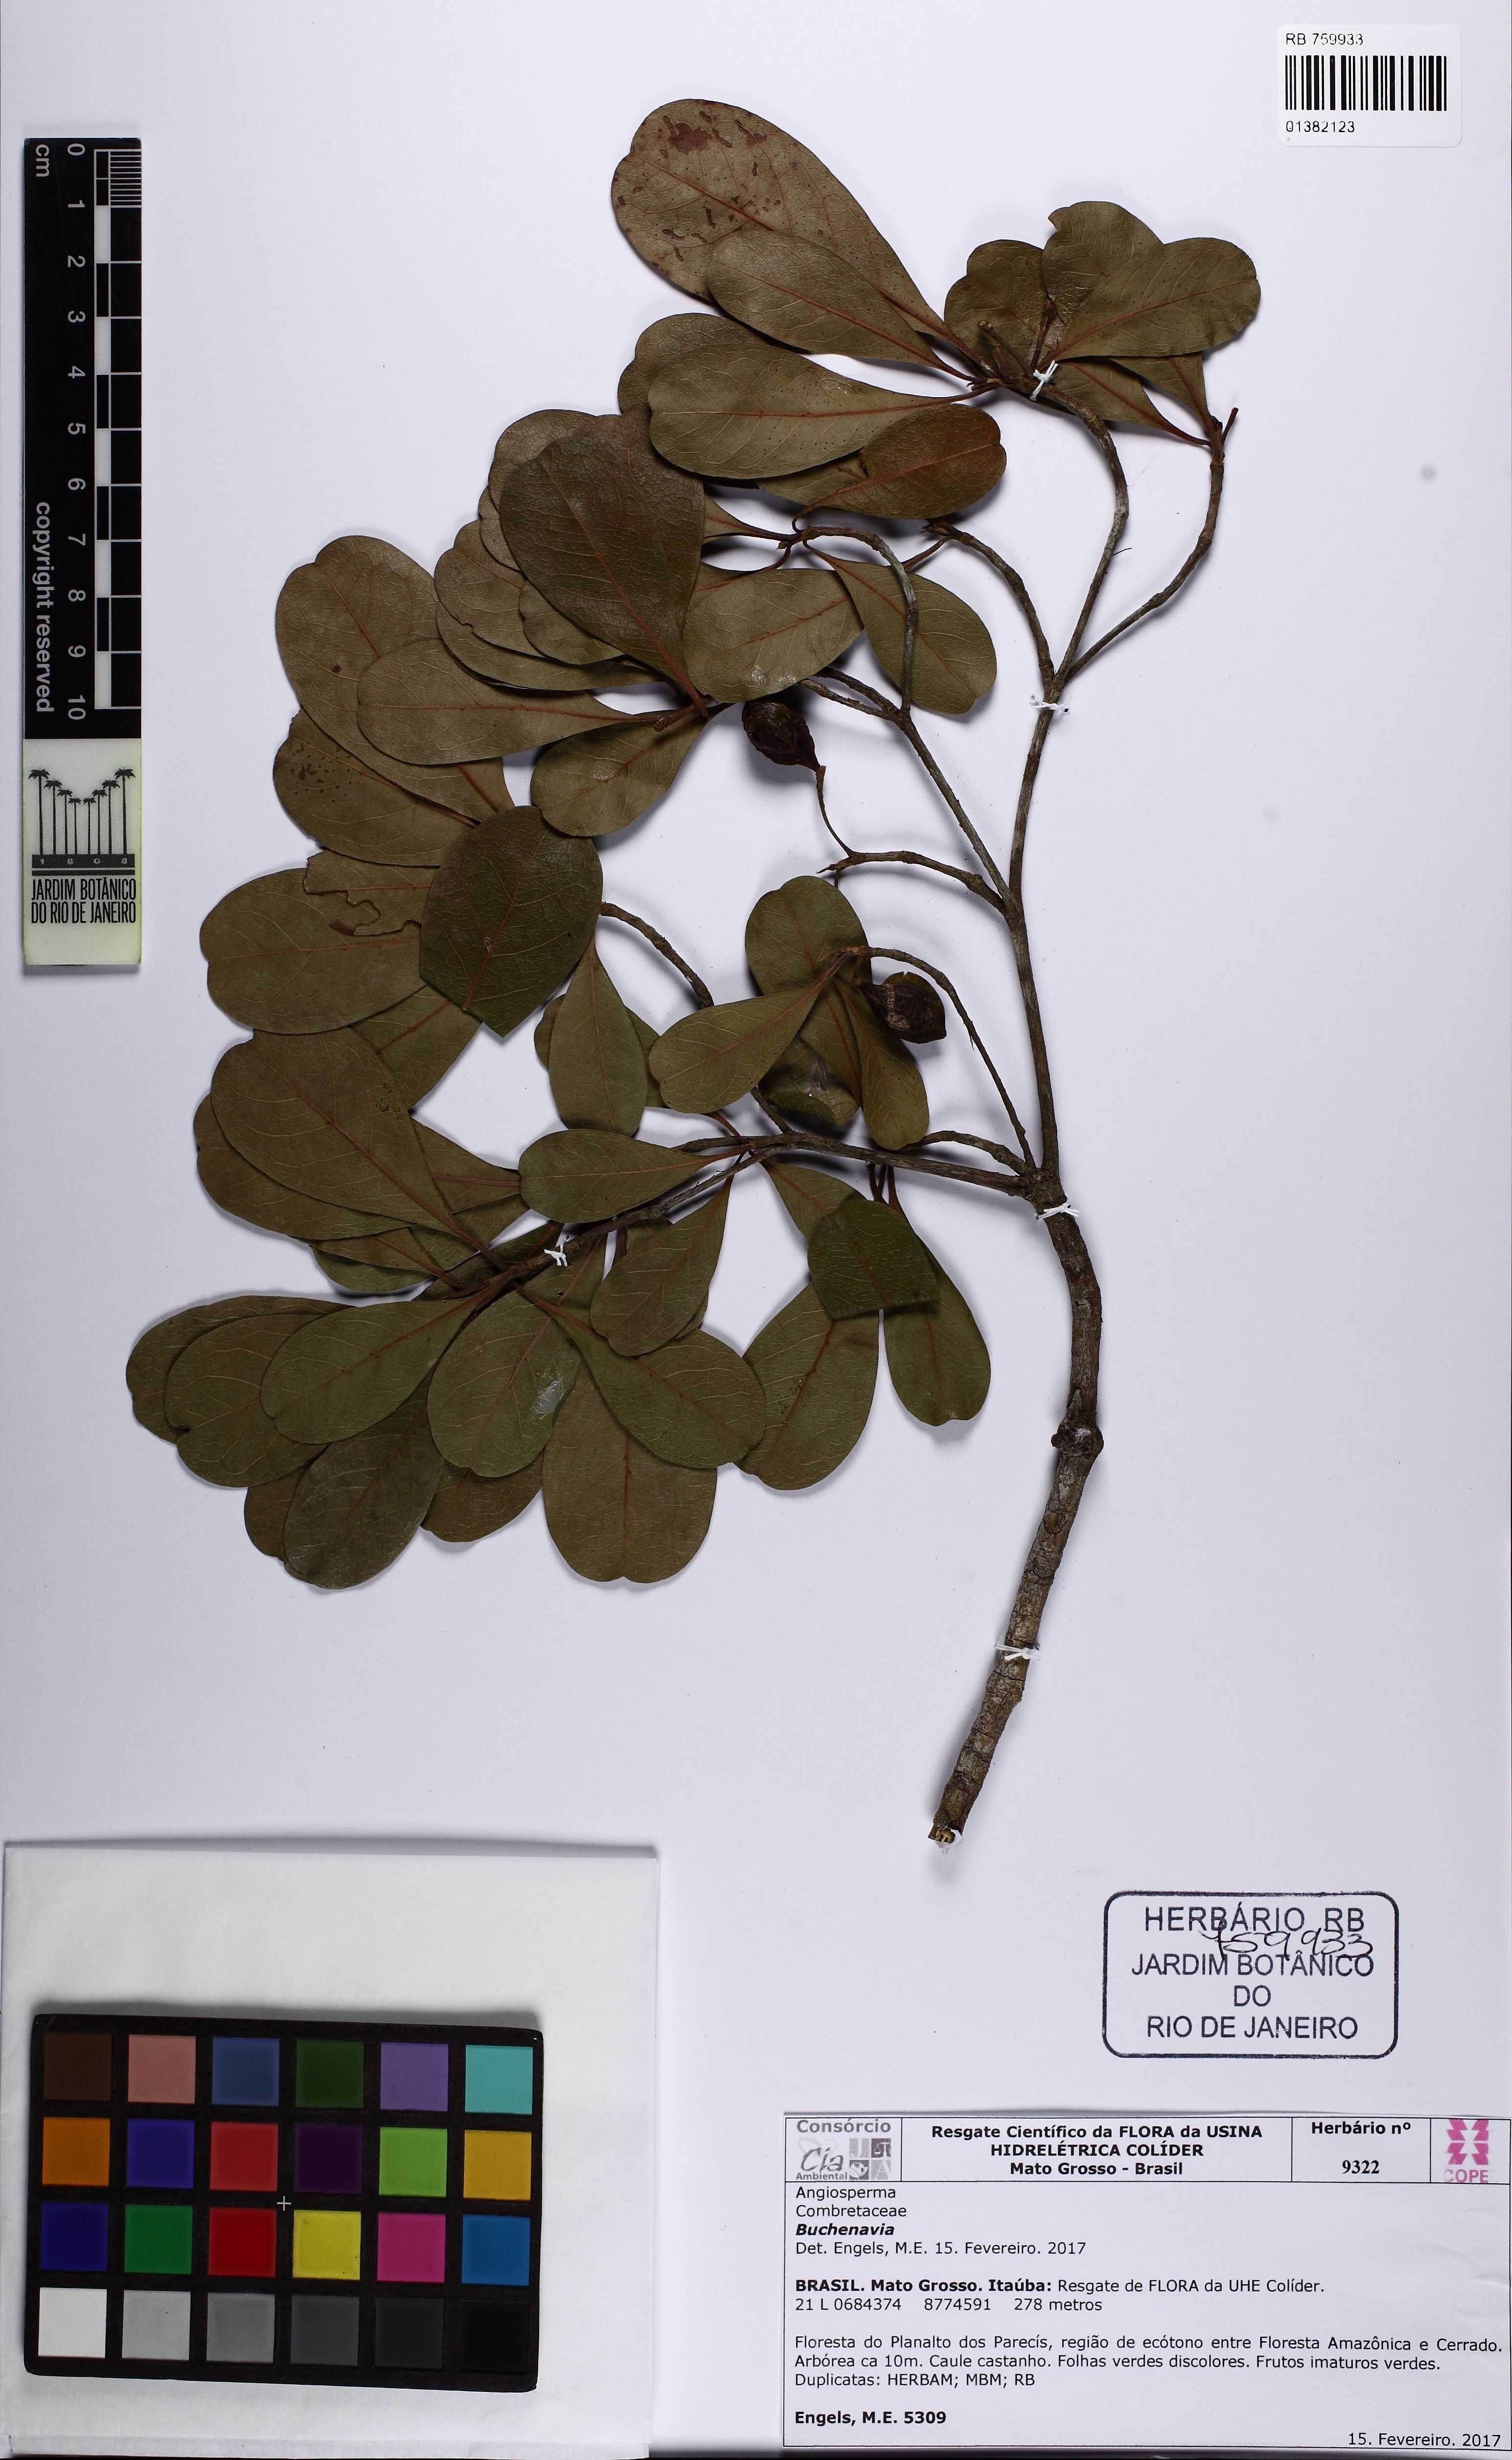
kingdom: Plantae
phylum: Tracheophyta
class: Magnoliopsida
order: Myrtales
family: Combretaceae
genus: Terminalia
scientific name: Terminalia
